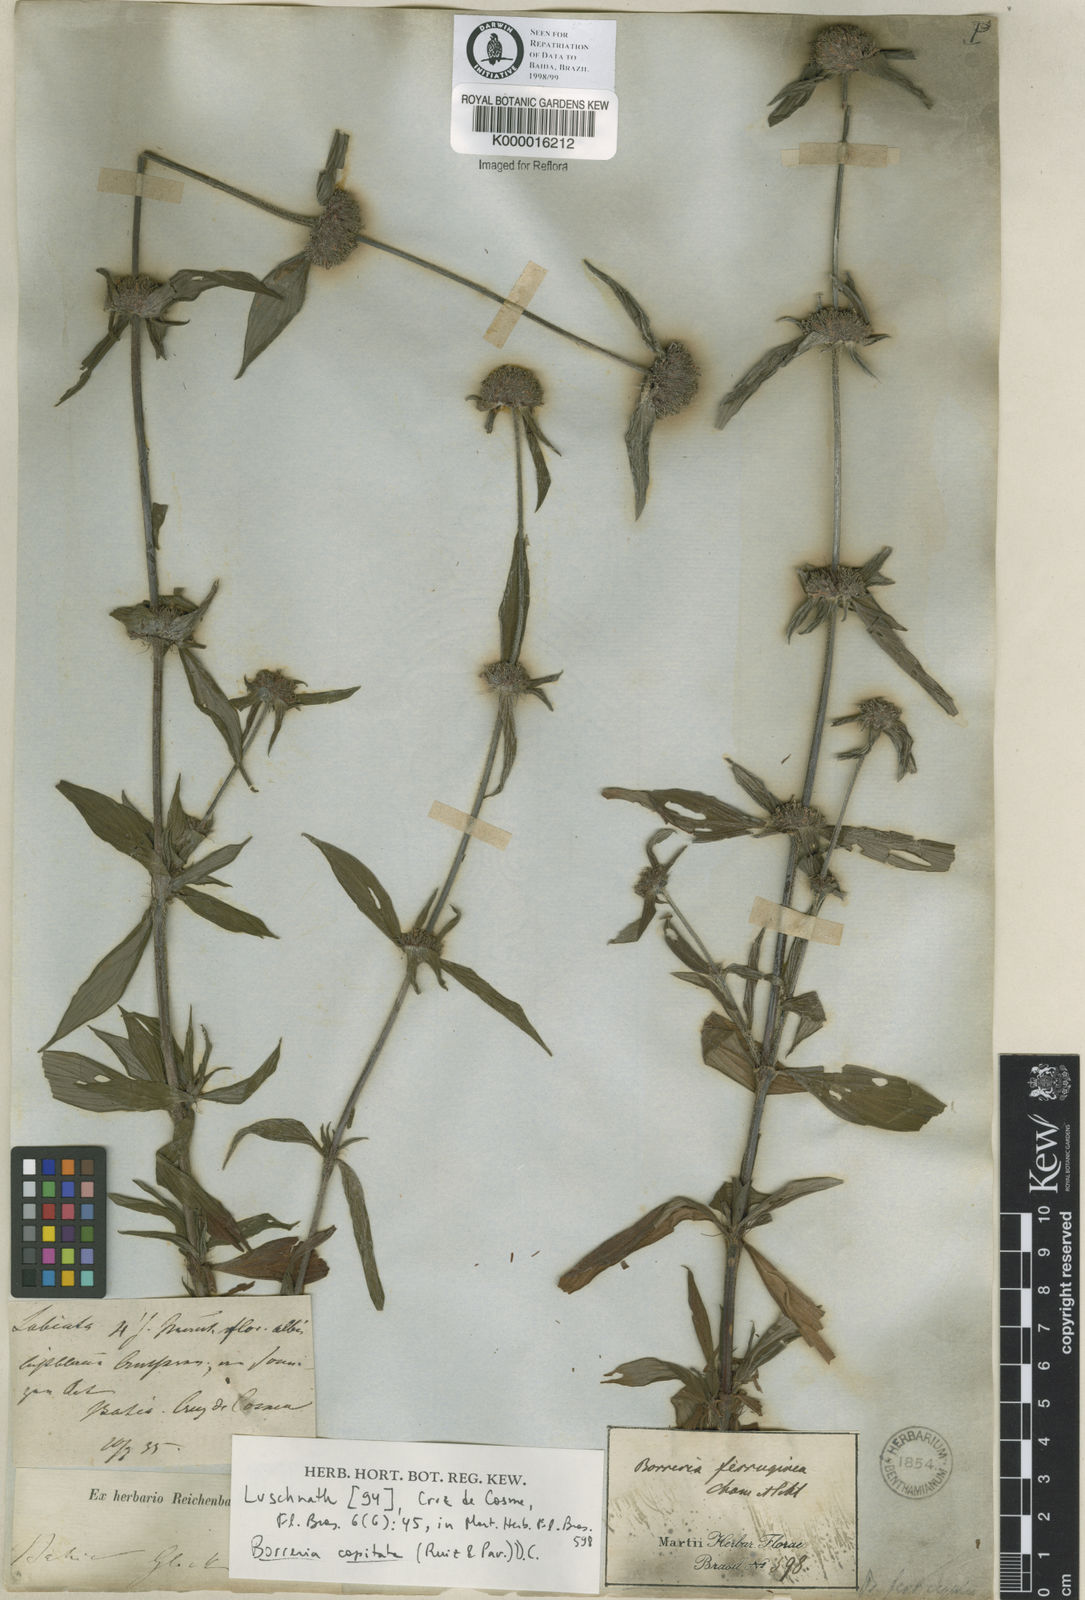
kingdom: Plantae
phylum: Tracheophyta
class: Magnoliopsida
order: Gentianales
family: Rubiaceae
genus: Spermacoce
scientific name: Spermacoce capitata
